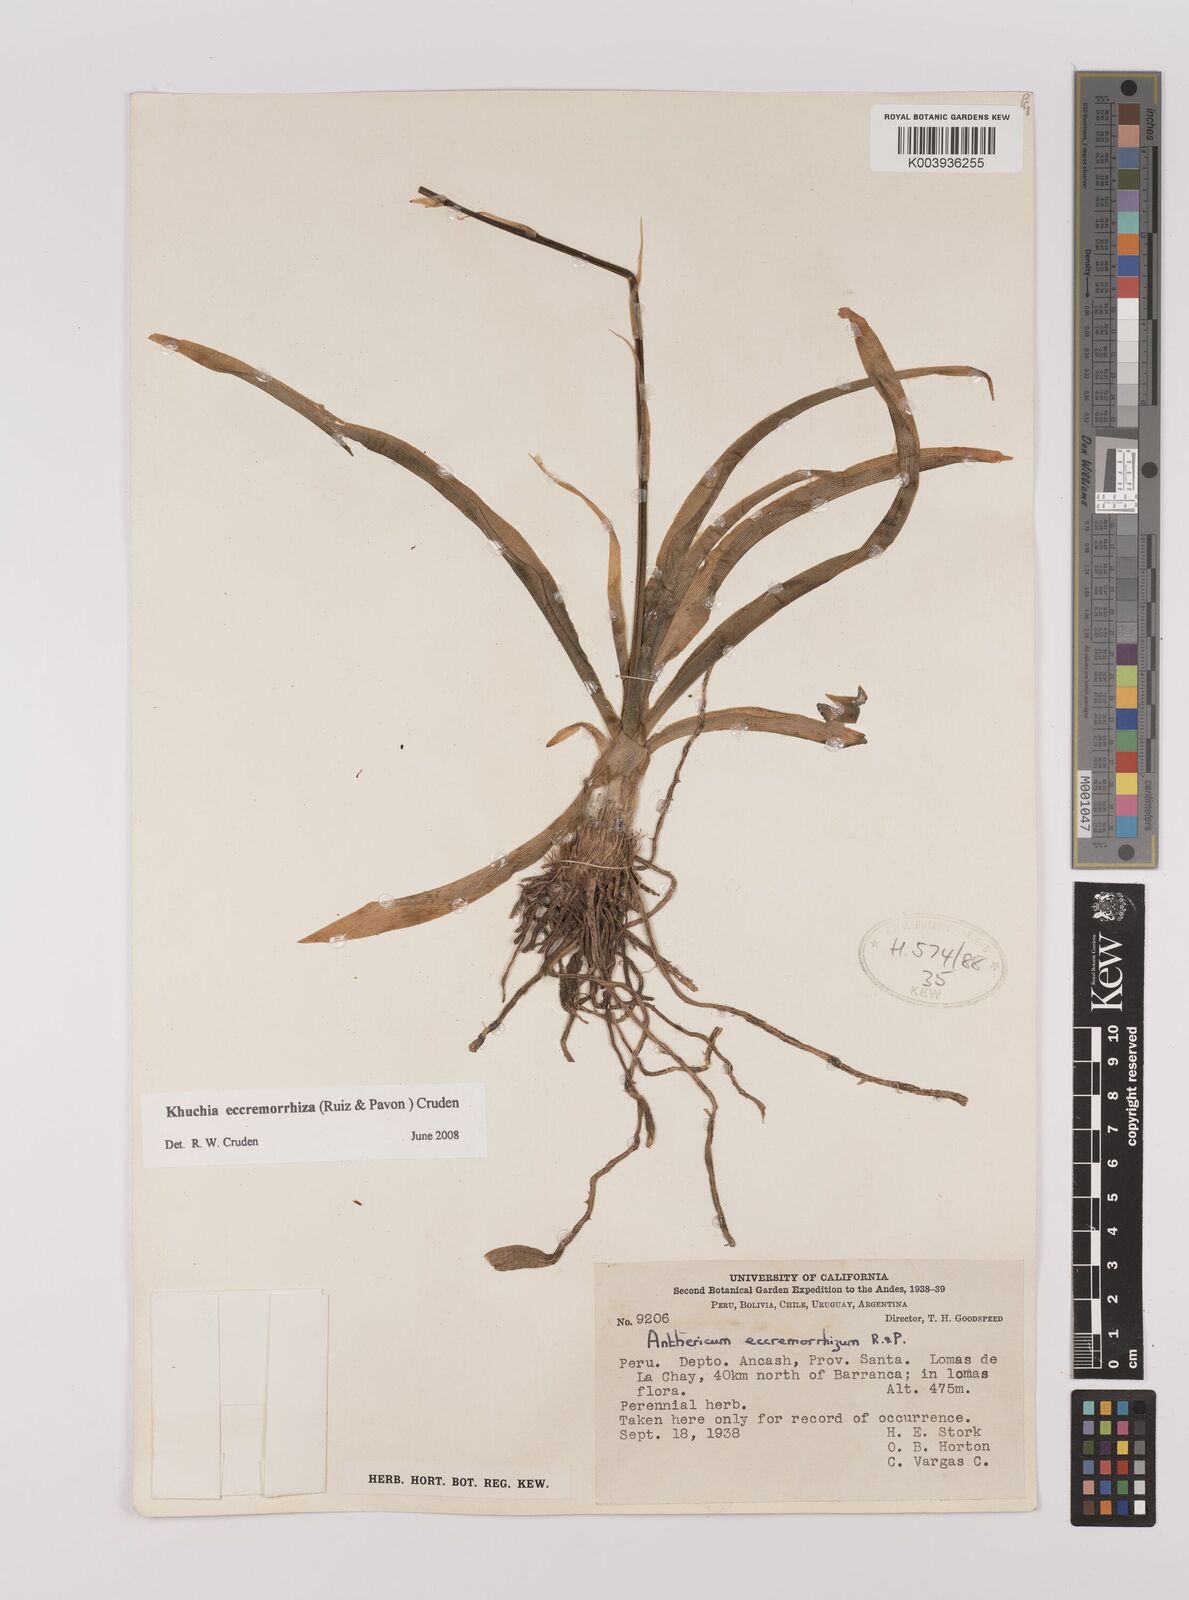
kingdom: Plantae
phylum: Tracheophyta
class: Liliopsida
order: Asparagales
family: Asparagaceae
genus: Echeandia
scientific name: Echeandia
